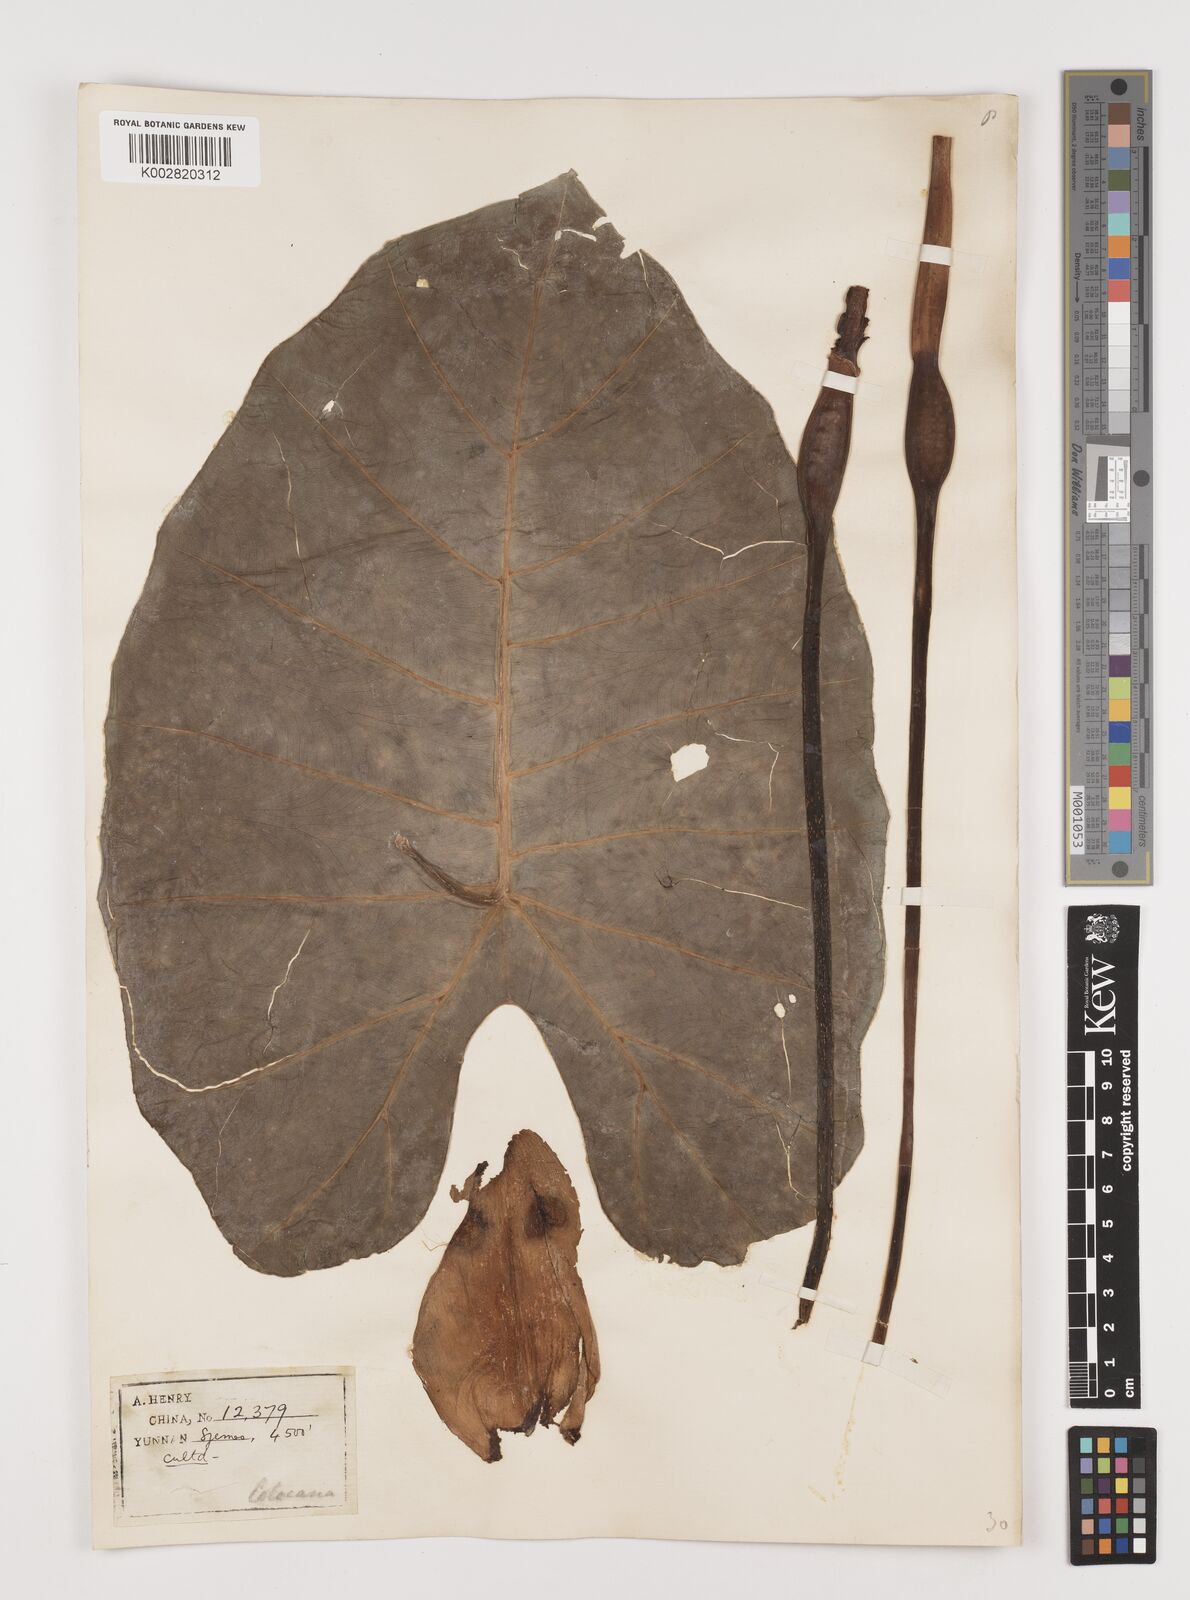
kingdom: Plantae
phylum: Tracheophyta
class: Liliopsida
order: Alismatales
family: Araceae
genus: Colocasia
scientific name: Colocasia esculenta
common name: Taro
